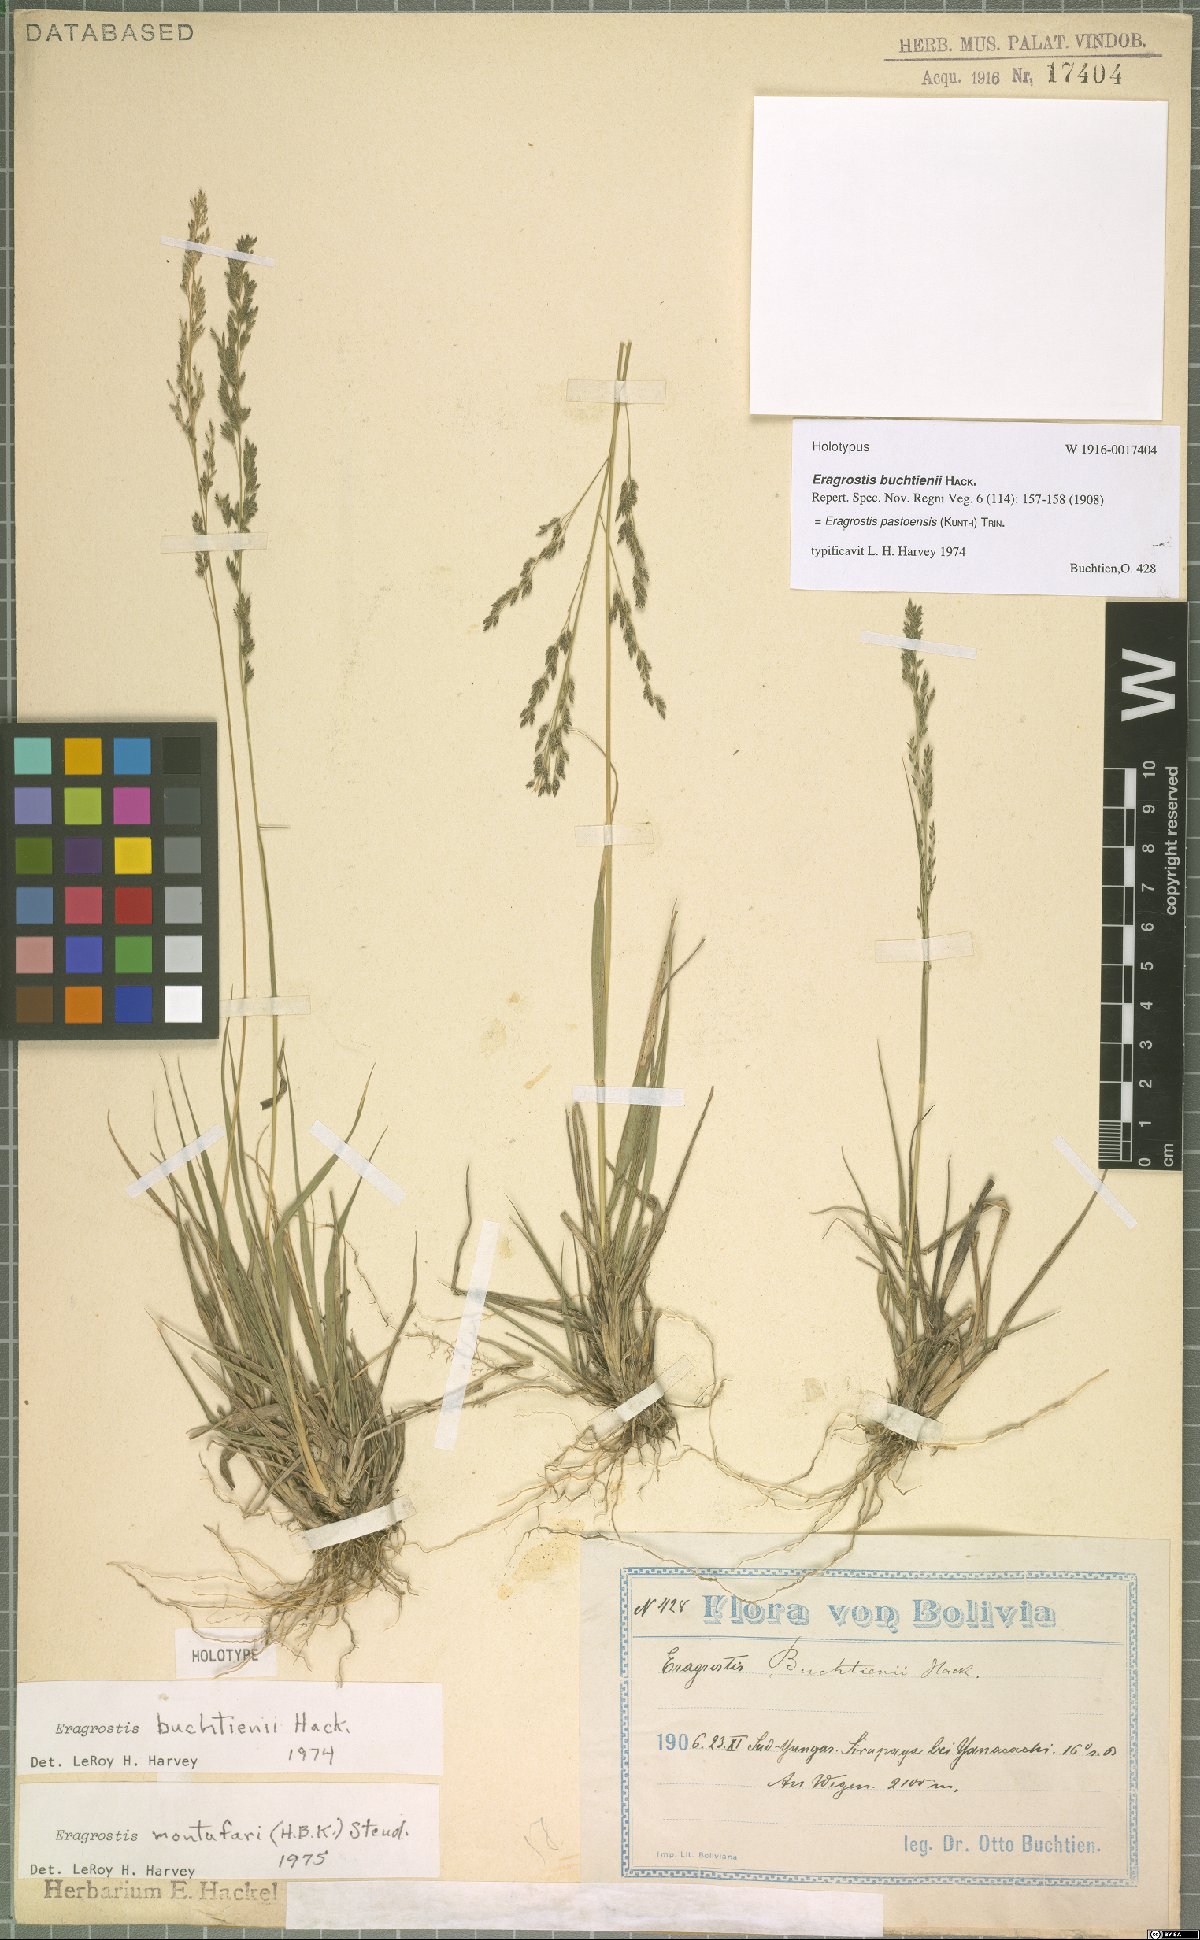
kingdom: Plantae
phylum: Tracheophyta
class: Liliopsida
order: Poales
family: Poaceae
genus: Eragrostis
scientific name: Eragrostis pastoensis
